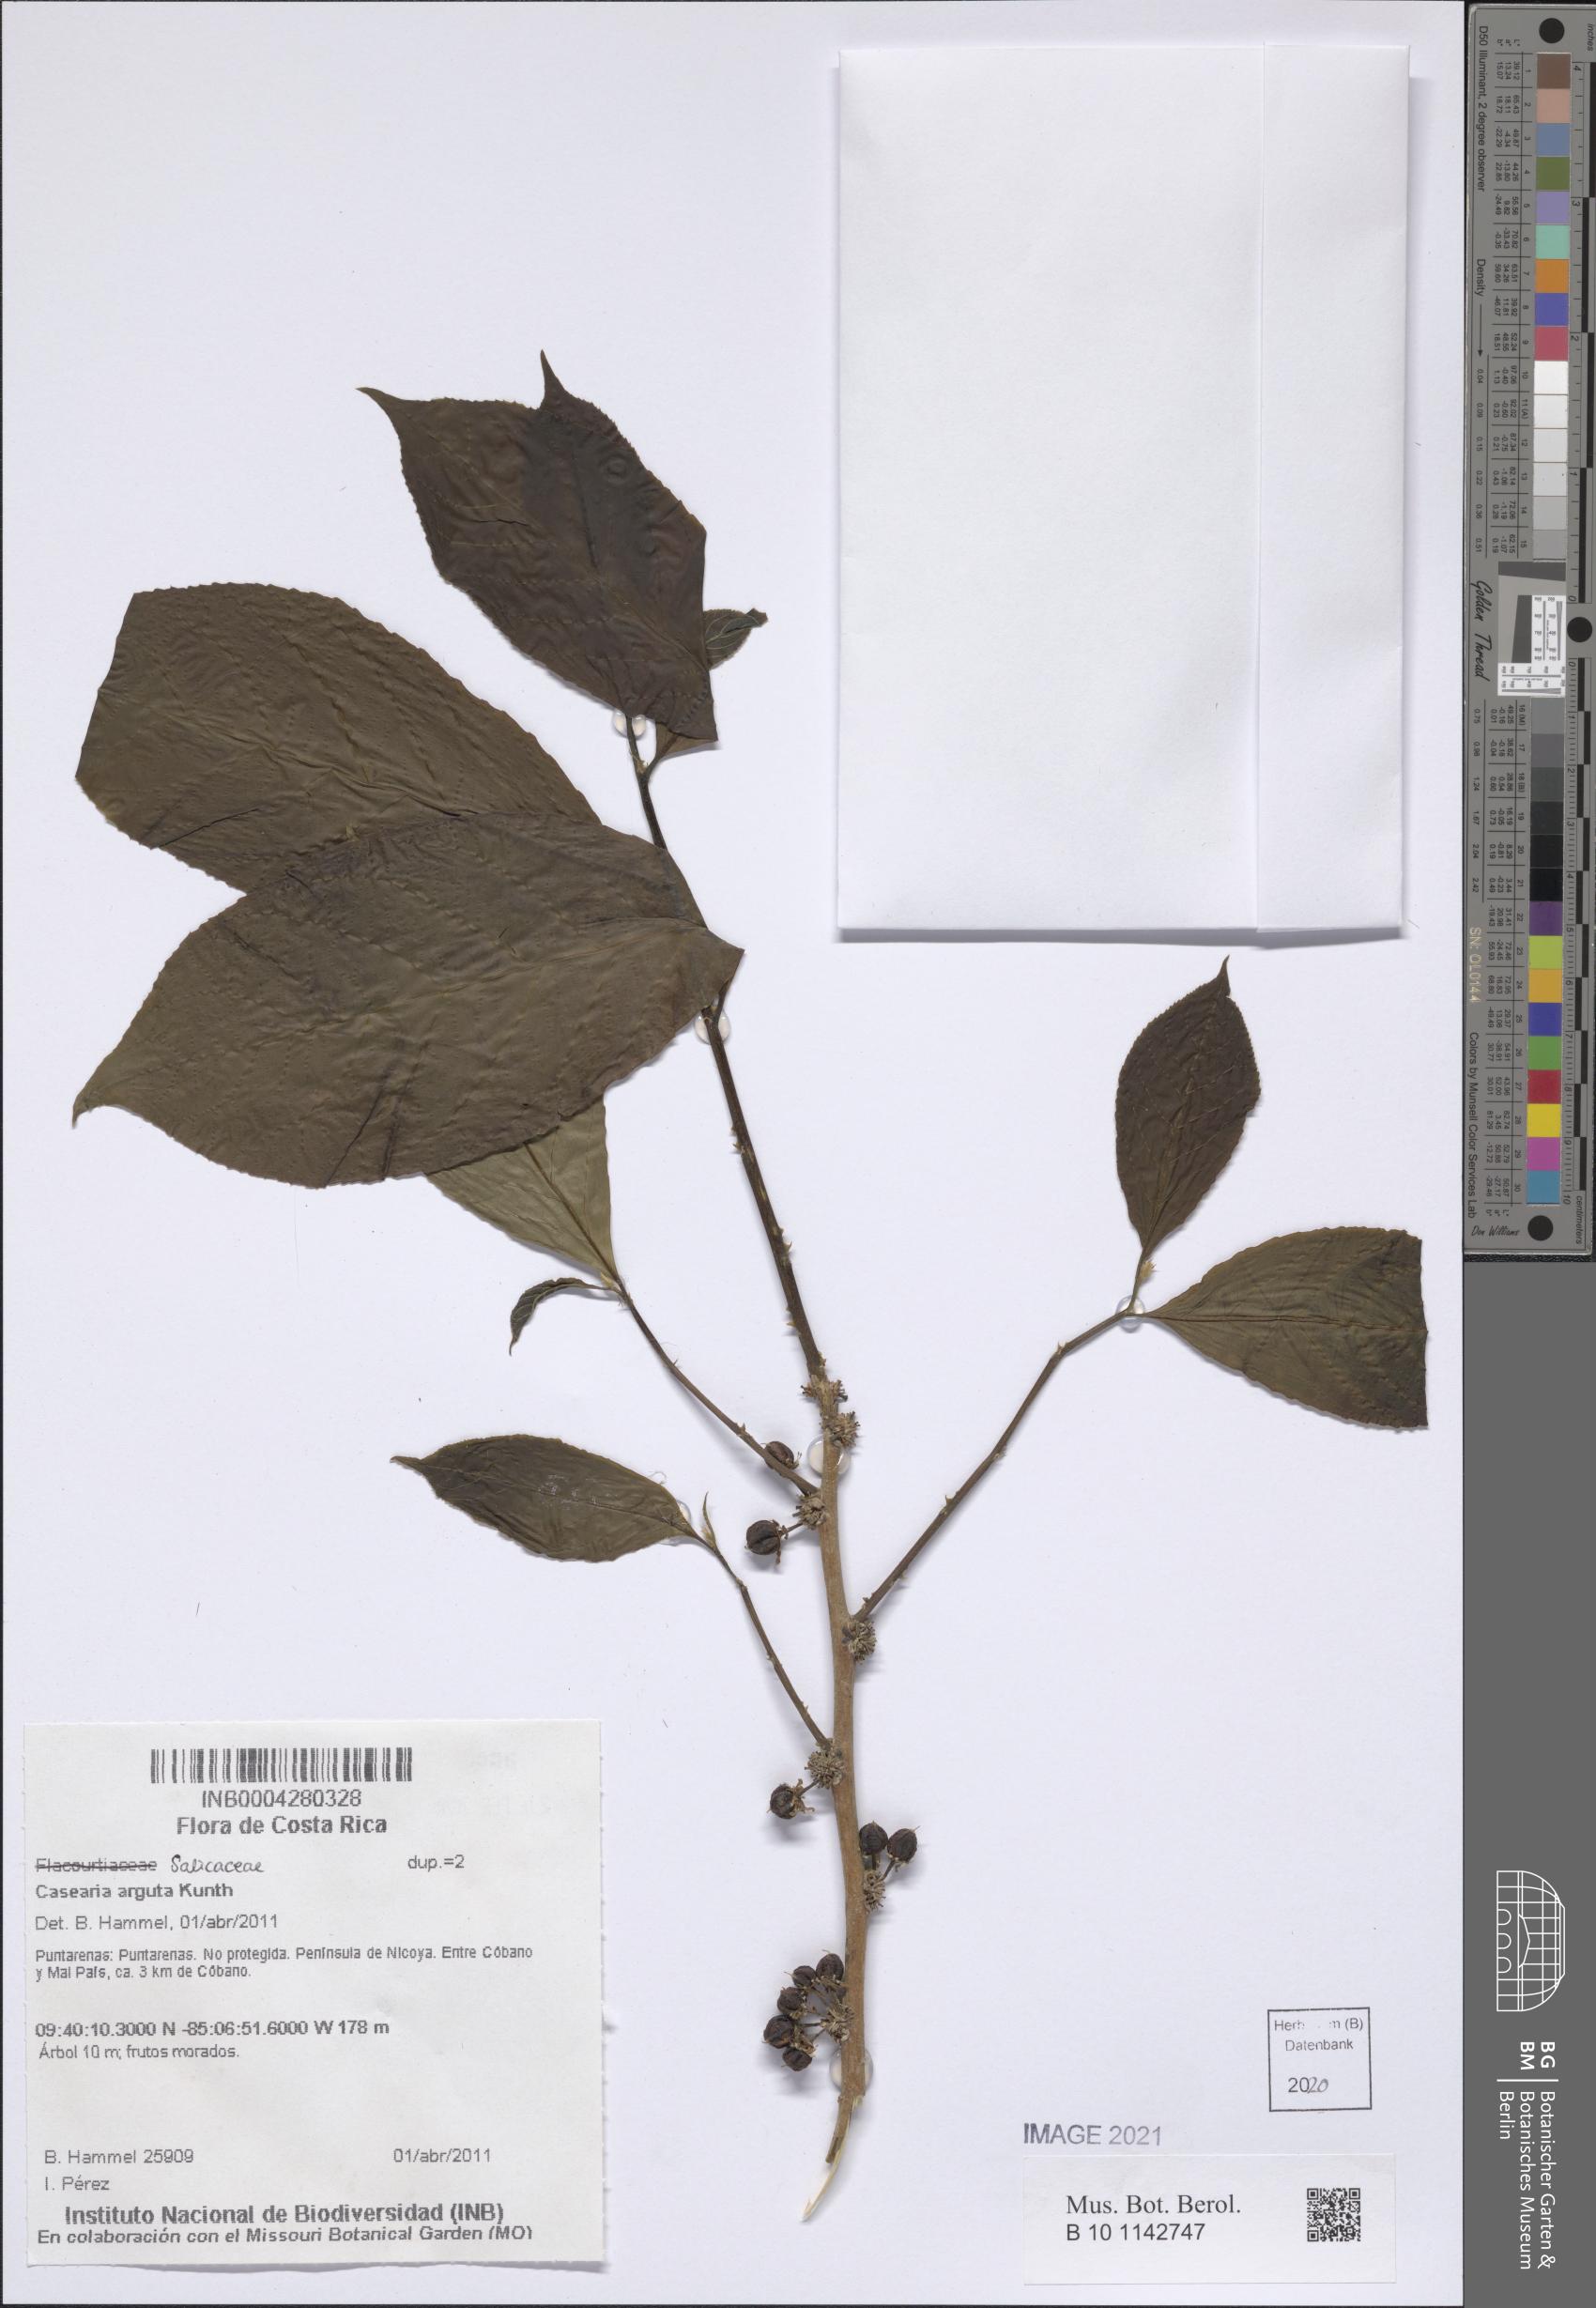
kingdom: Plantae
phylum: Tracheophyta
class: Magnoliopsida
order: Malpighiales
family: Salicaceae
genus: Casearia
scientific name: Casearia arguta
